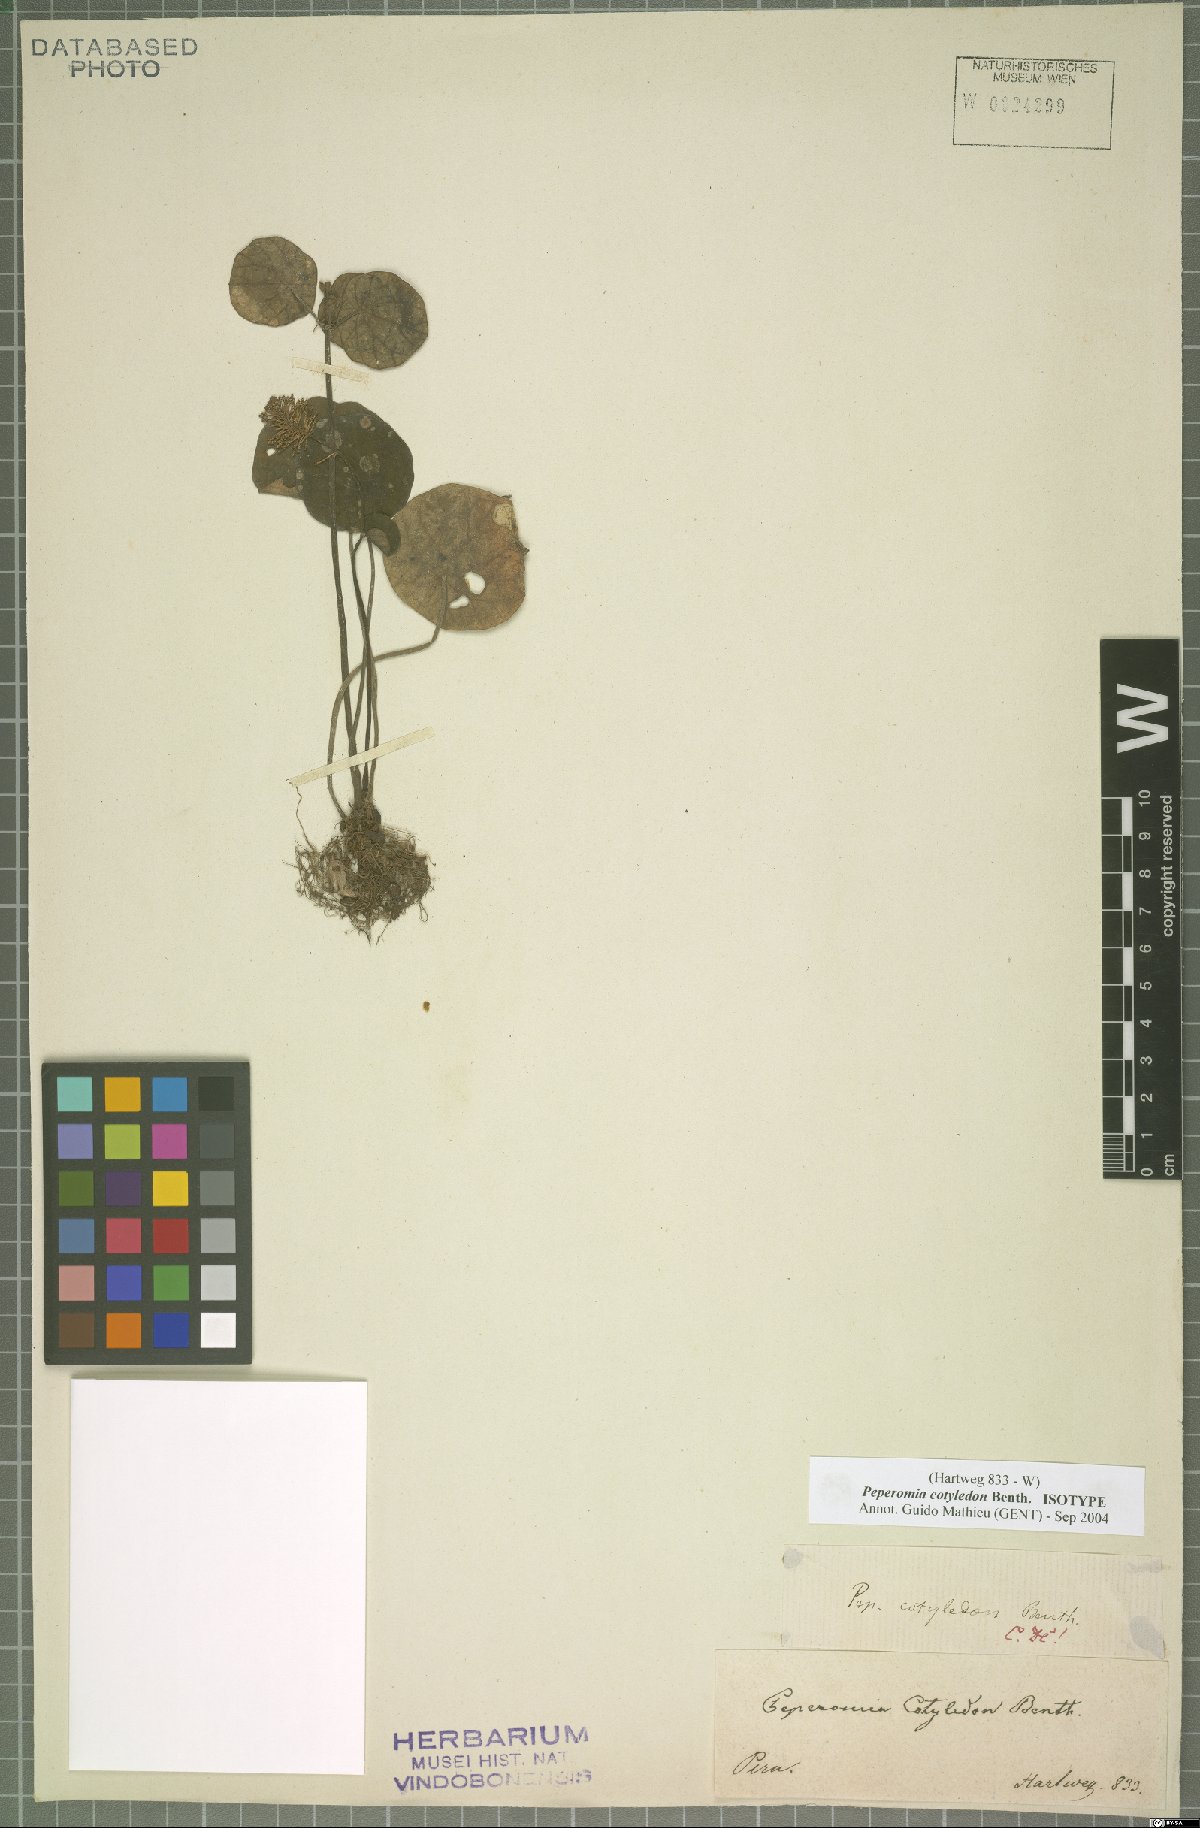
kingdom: Plantae
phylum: Tracheophyta
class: Magnoliopsida
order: Piperales
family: Piperaceae
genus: Peperomia
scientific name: Peperomia cotyledon
